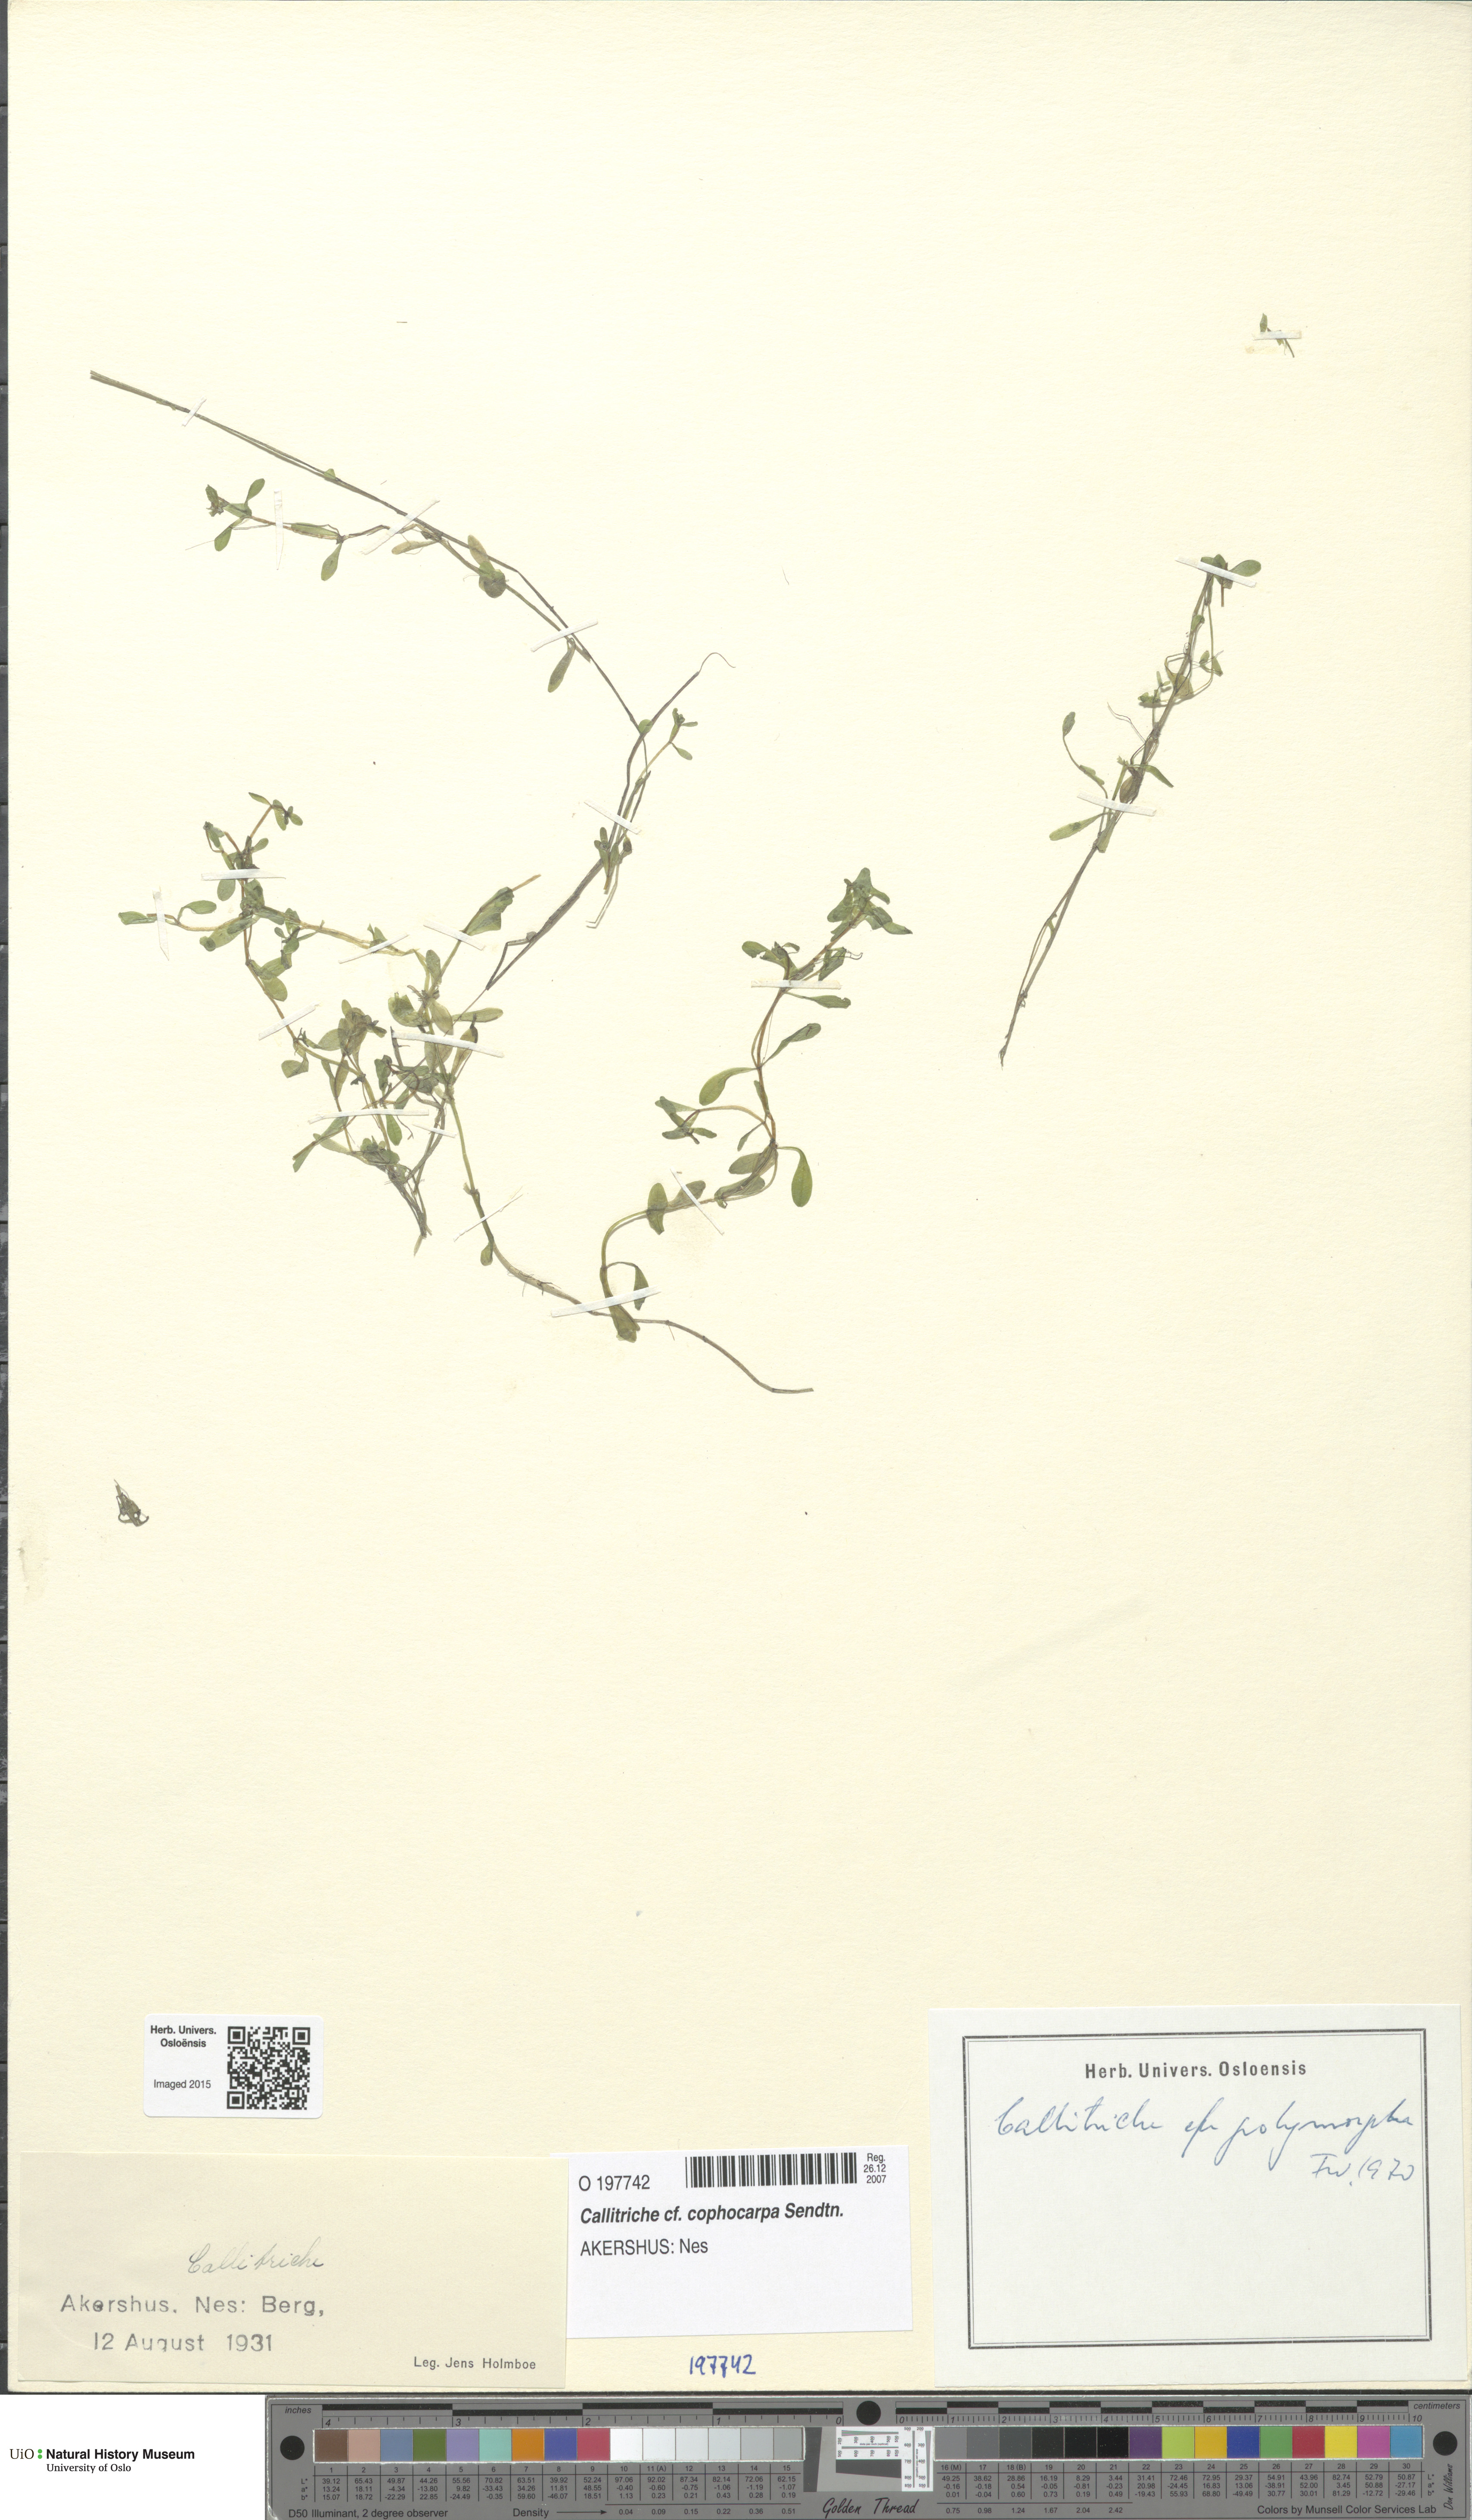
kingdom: Plantae
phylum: Tracheophyta
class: Magnoliopsida
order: Lamiales
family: Plantaginaceae
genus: Callitriche
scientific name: Callitriche cophocarpa
